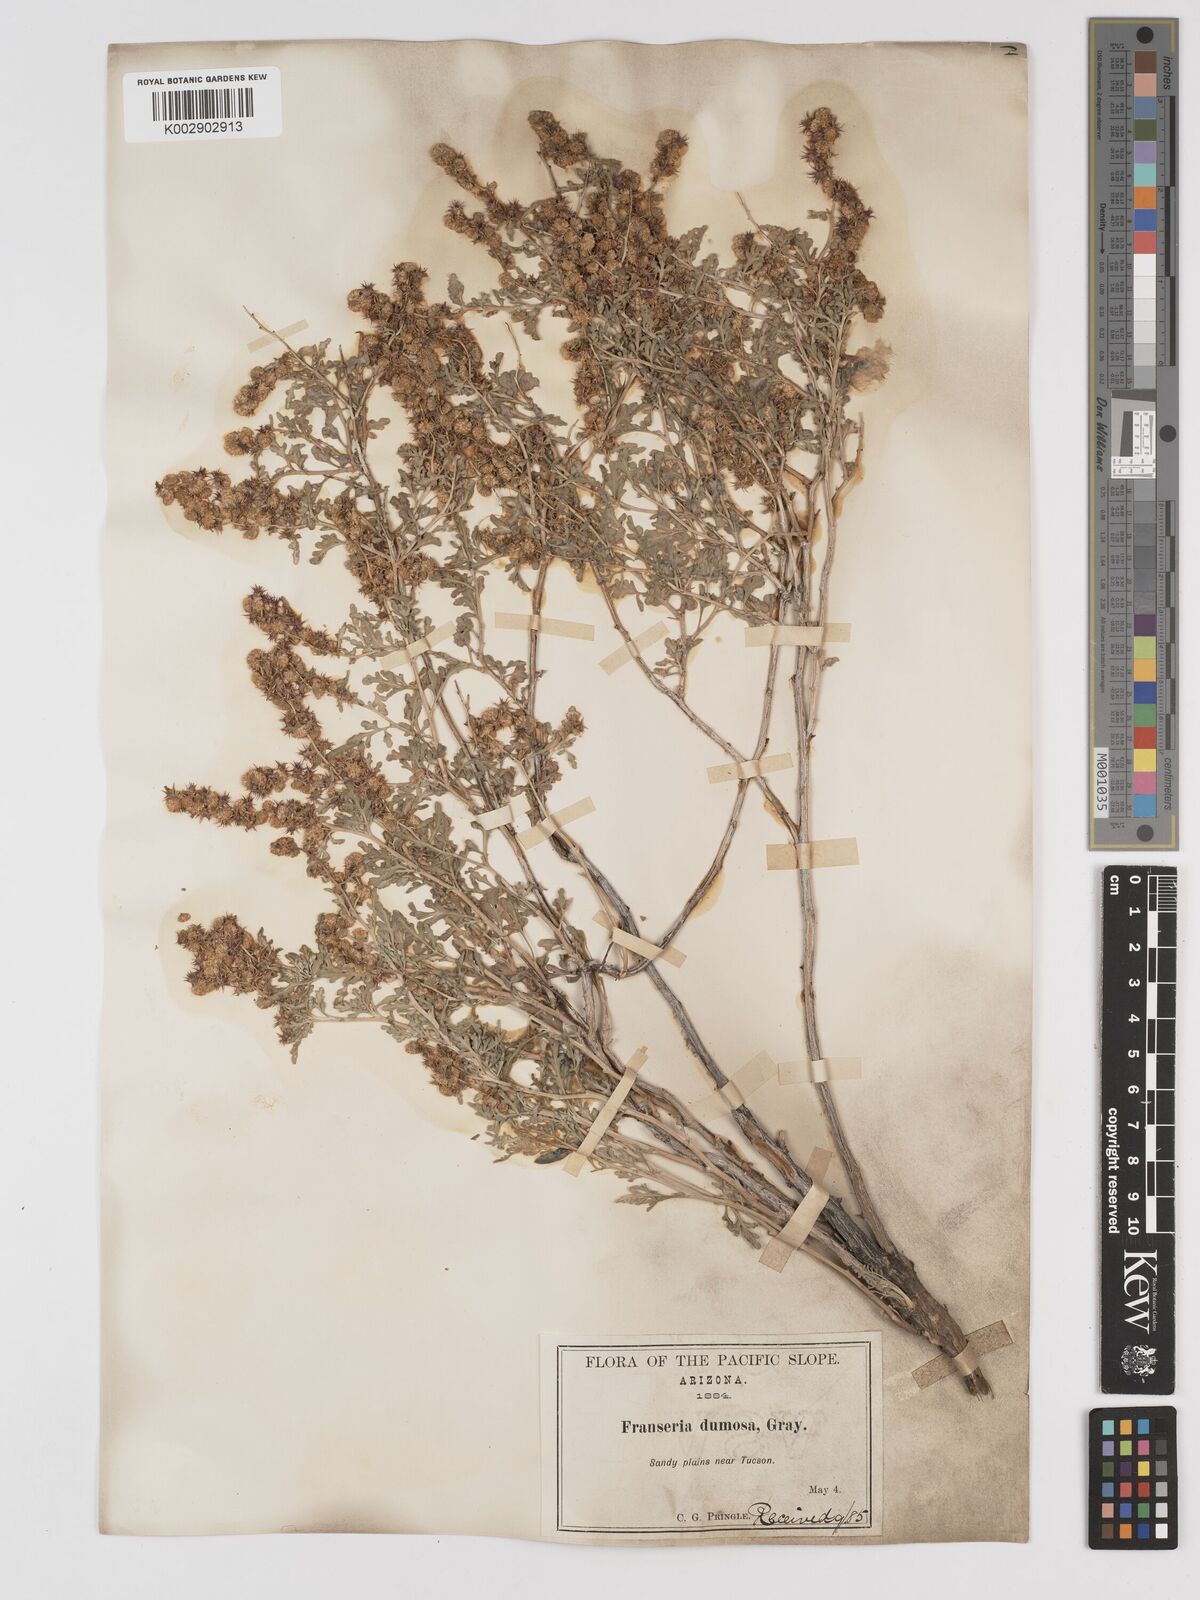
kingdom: Plantae
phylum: Tracheophyta
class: Magnoliopsida
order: Asterales
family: Asteraceae
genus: Ambrosia
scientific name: Ambrosia dumosa
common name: Bur-sage
